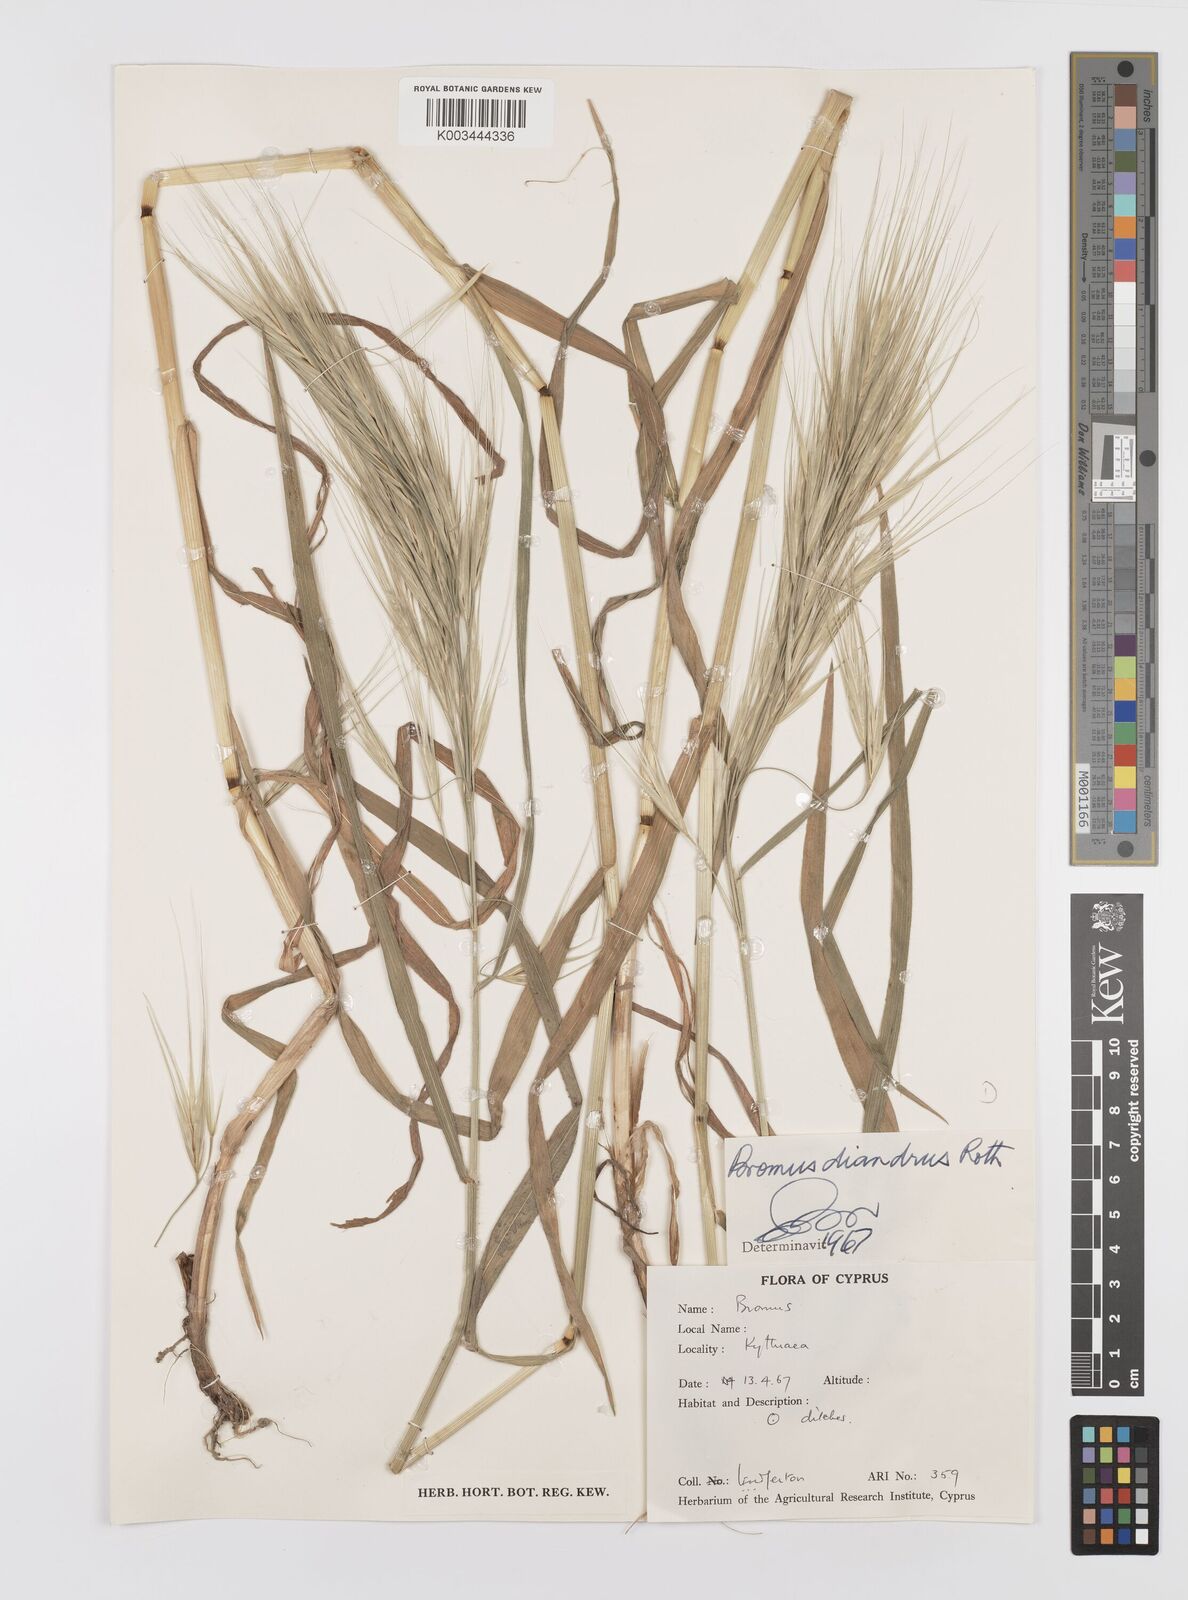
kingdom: Plantae
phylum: Tracheophyta
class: Liliopsida
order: Poales
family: Poaceae
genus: Bromus
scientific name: Bromus diandrus
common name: Ripgut brome
